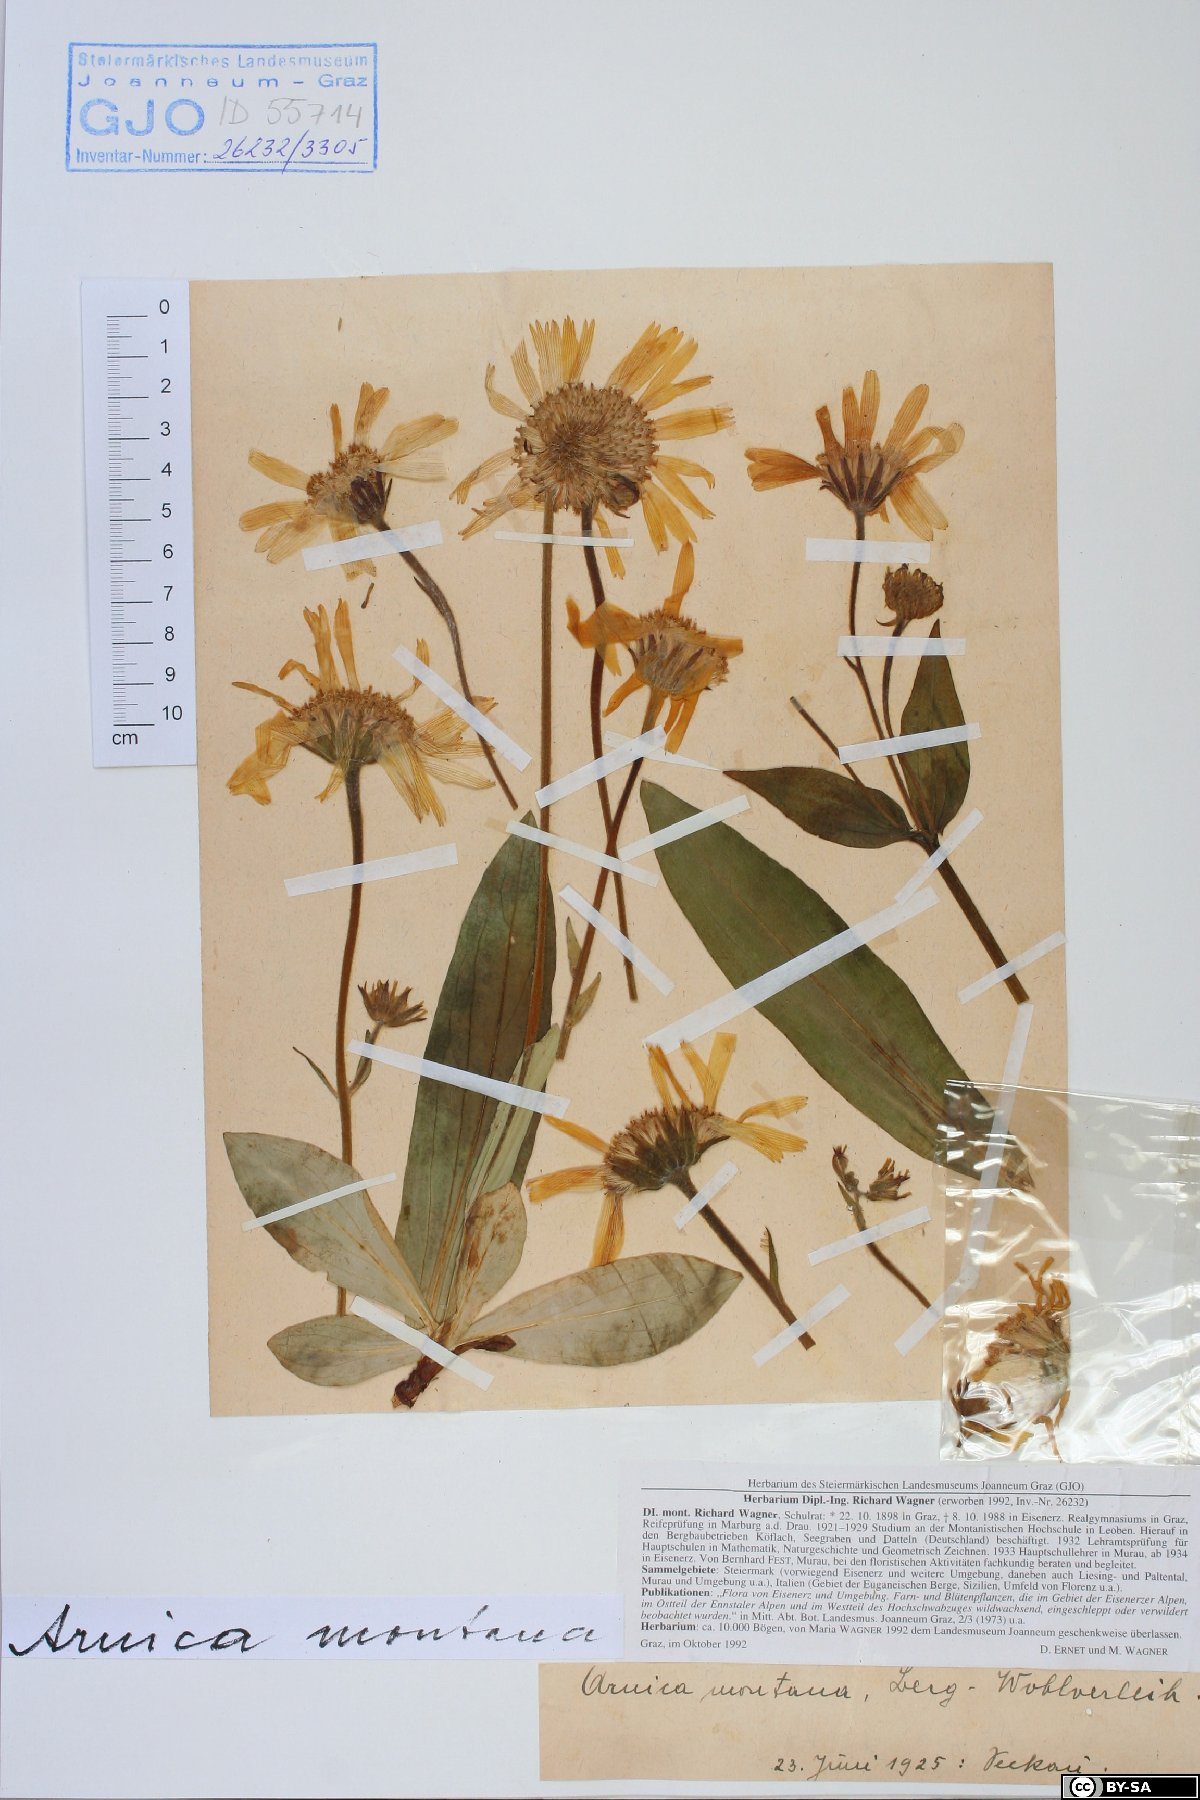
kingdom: Plantae
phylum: Tracheophyta
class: Magnoliopsida
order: Asterales
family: Asteraceae
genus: Arnica
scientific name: Arnica montana
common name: Leopard's bane
